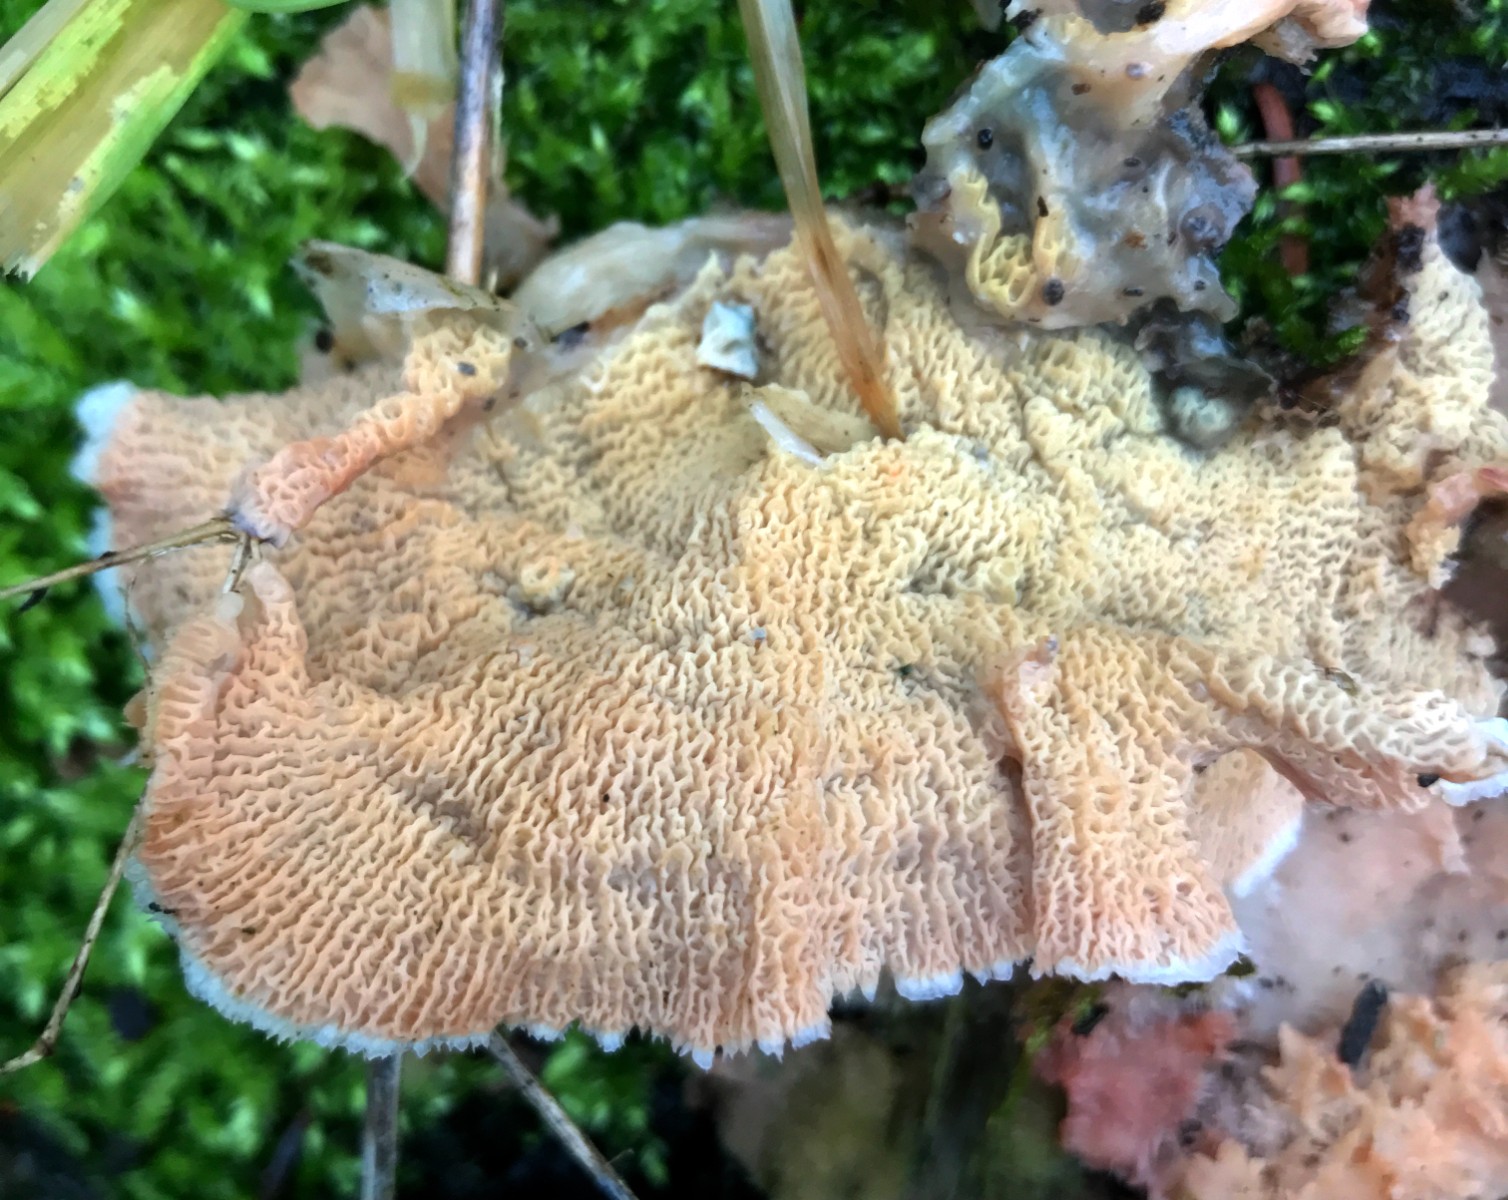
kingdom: Fungi
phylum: Basidiomycota
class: Agaricomycetes
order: Polyporales
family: Meruliaceae
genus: Phlebia
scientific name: Phlebia tremellosa
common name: bævrende åresvamp
